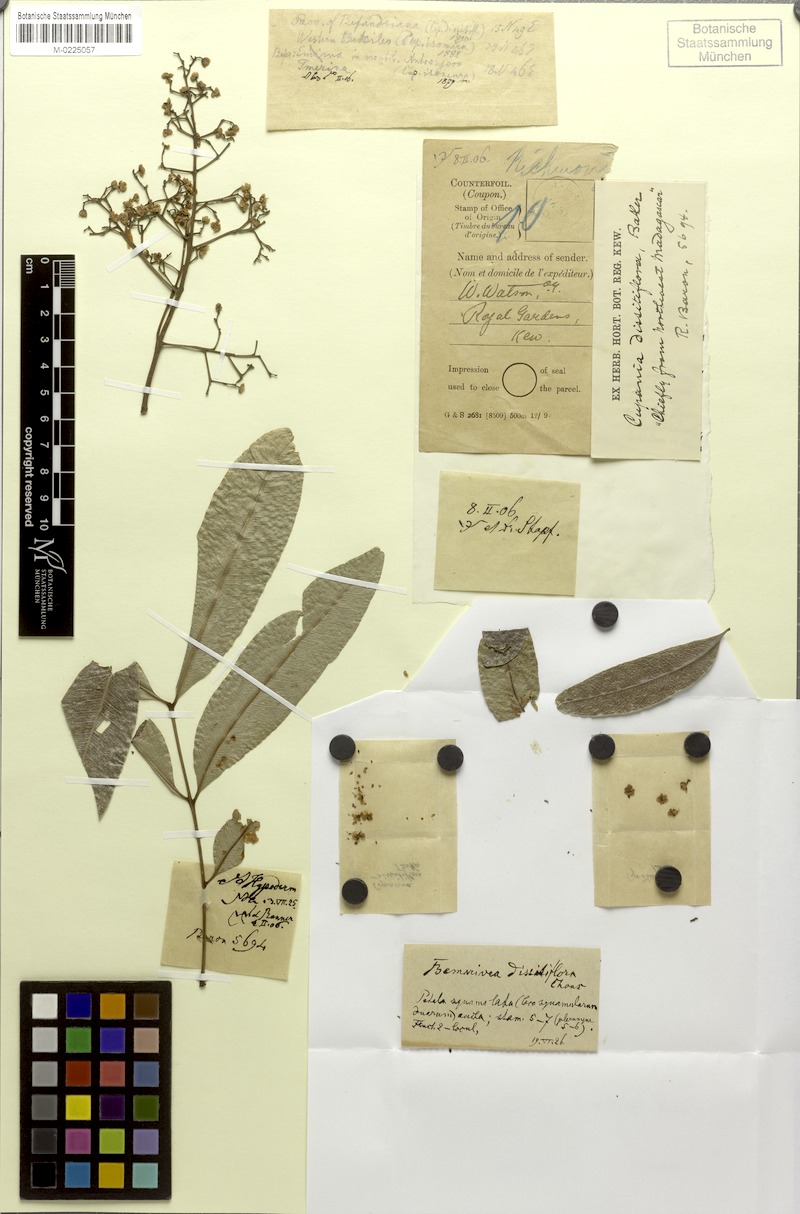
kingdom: Plantae
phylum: Tracheophyta
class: Magnoliopsida
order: Sapindales
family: Sapindaceae
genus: Tina
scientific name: Tina dissitiflora
